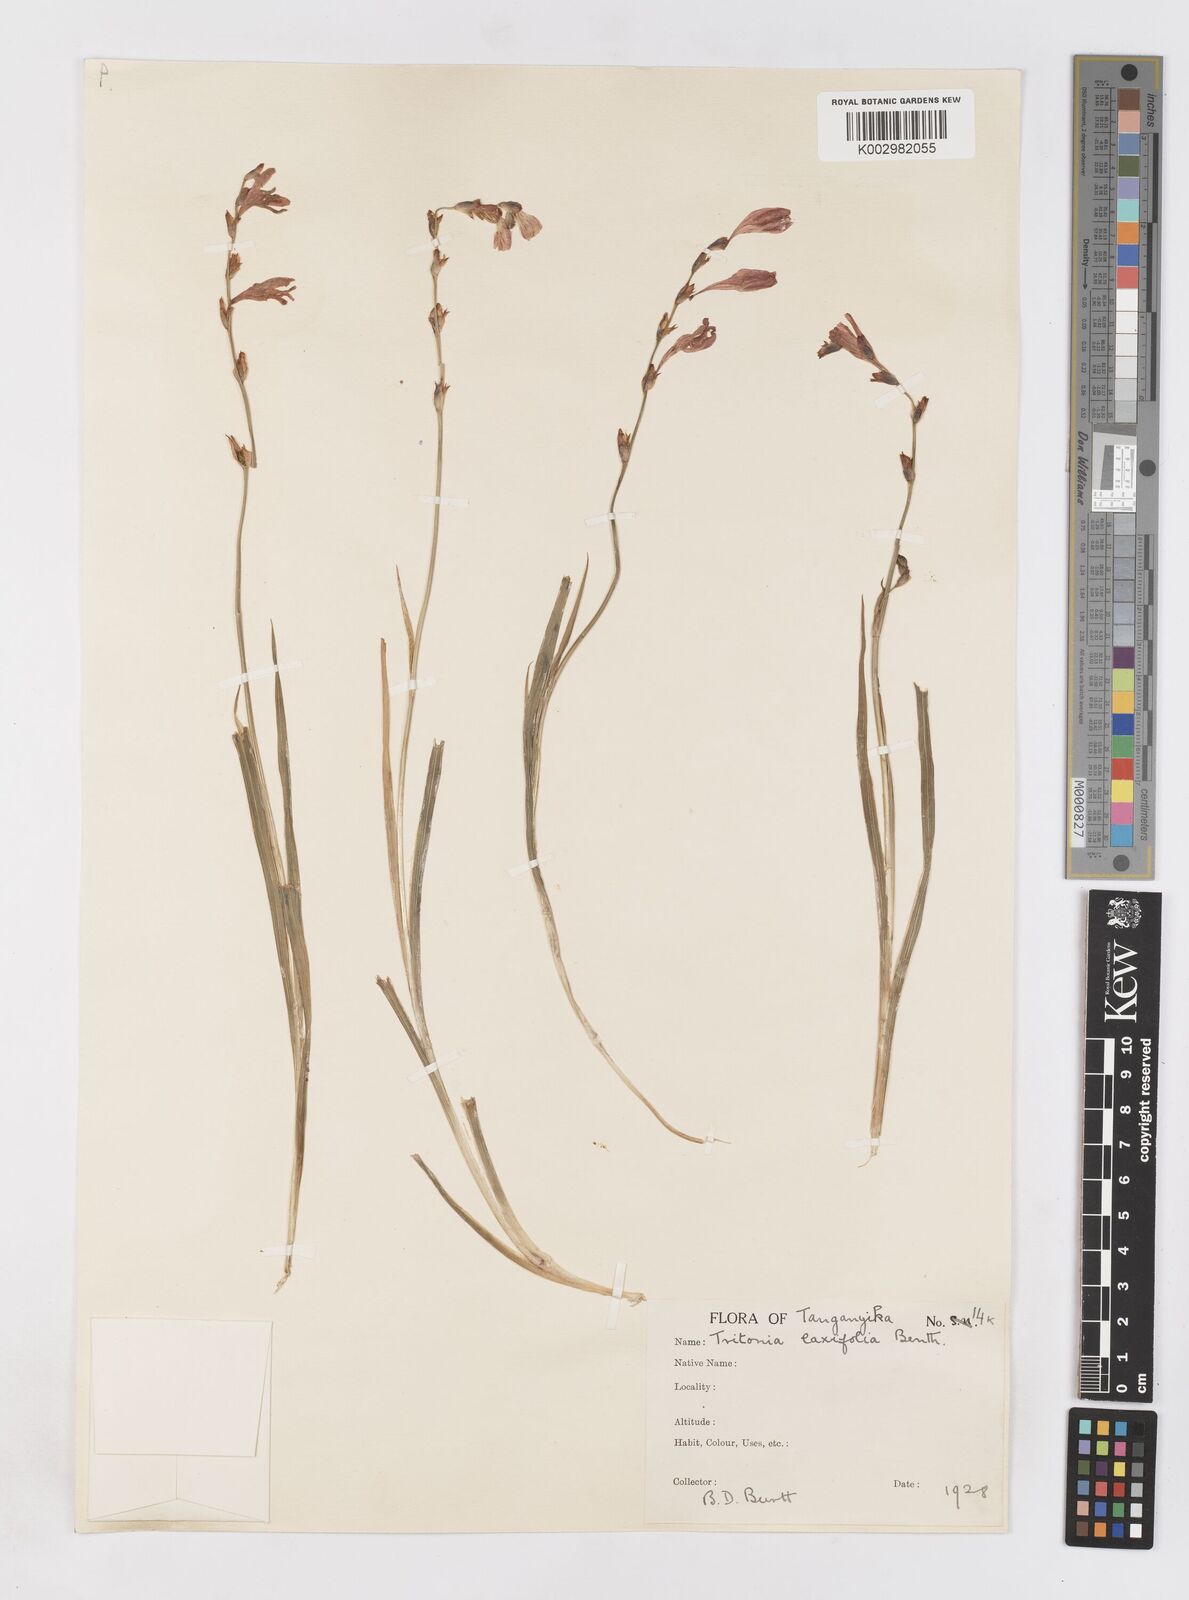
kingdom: Plantae
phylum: Tracheophyta
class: Liliopsida
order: Asparagales
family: Iridaceae
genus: Tritonia
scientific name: Tritonia laxifolia
